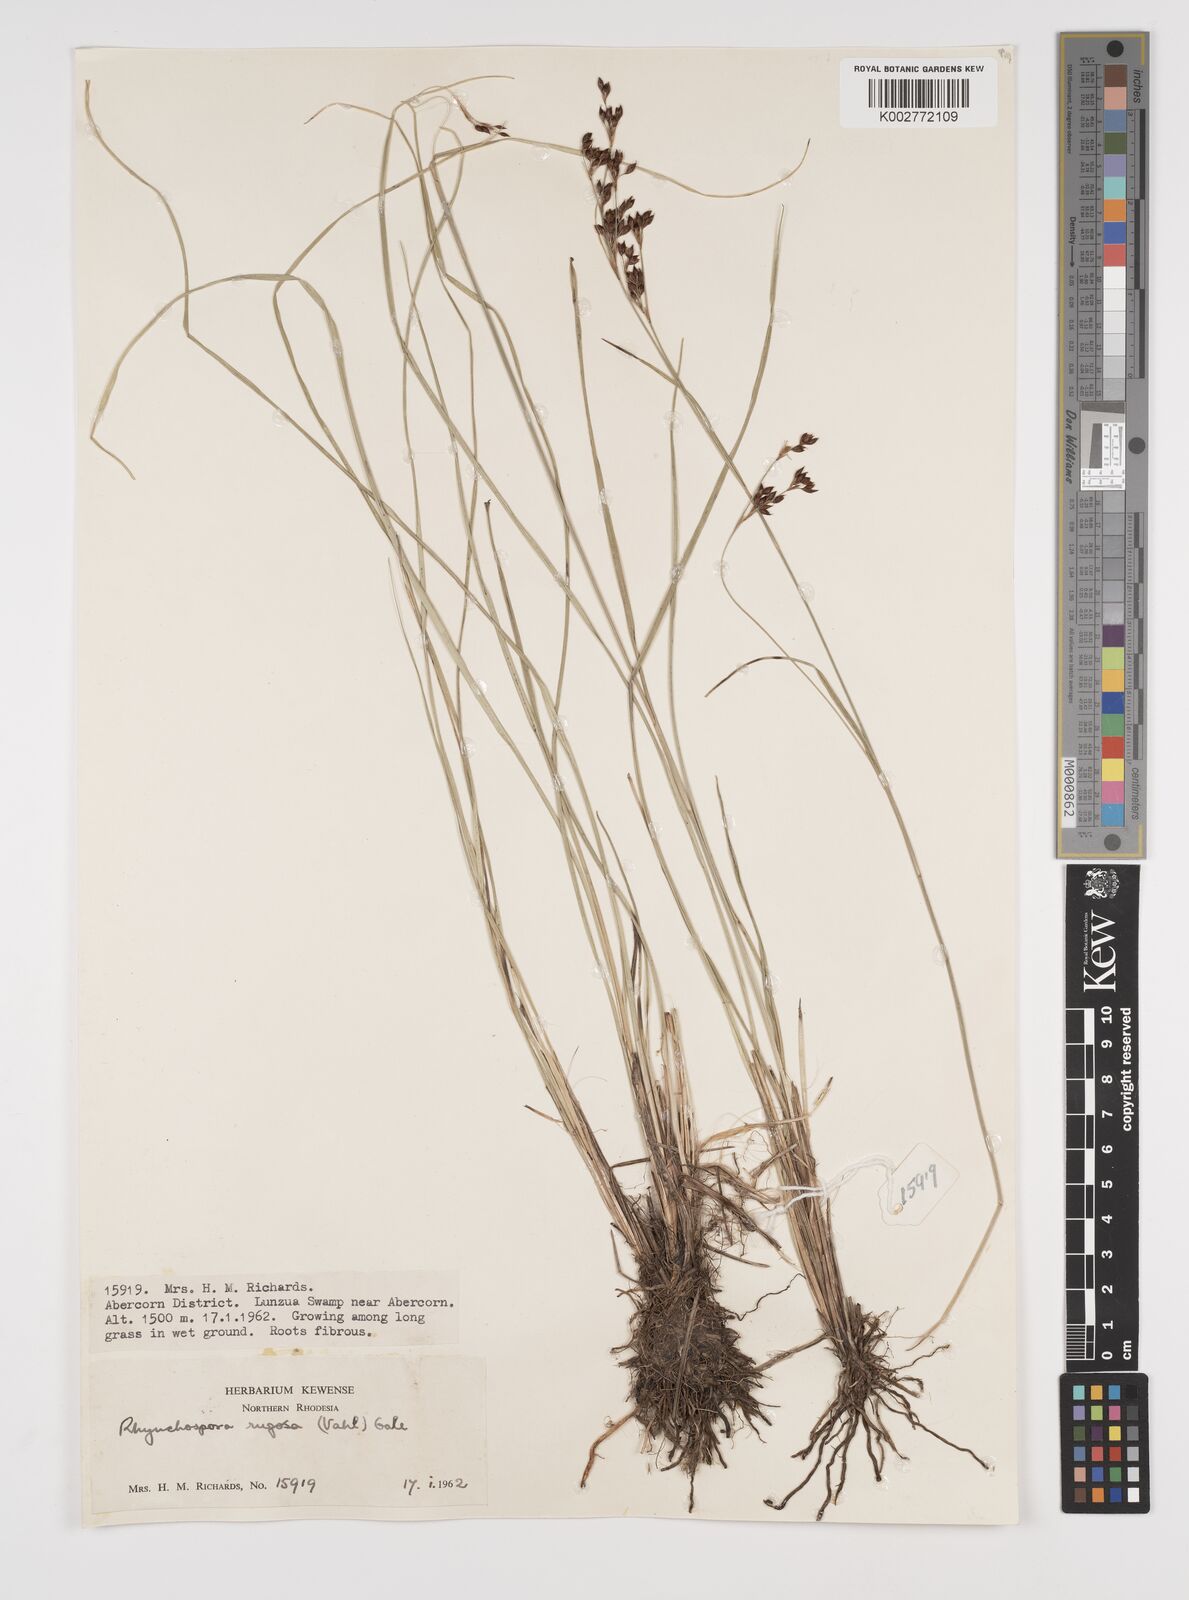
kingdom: Plantae
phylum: Tracheophyta
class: Liliopsida
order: Poales
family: Cyperaceae
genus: Rhynchospora
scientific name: Rhynchospora rugosa
